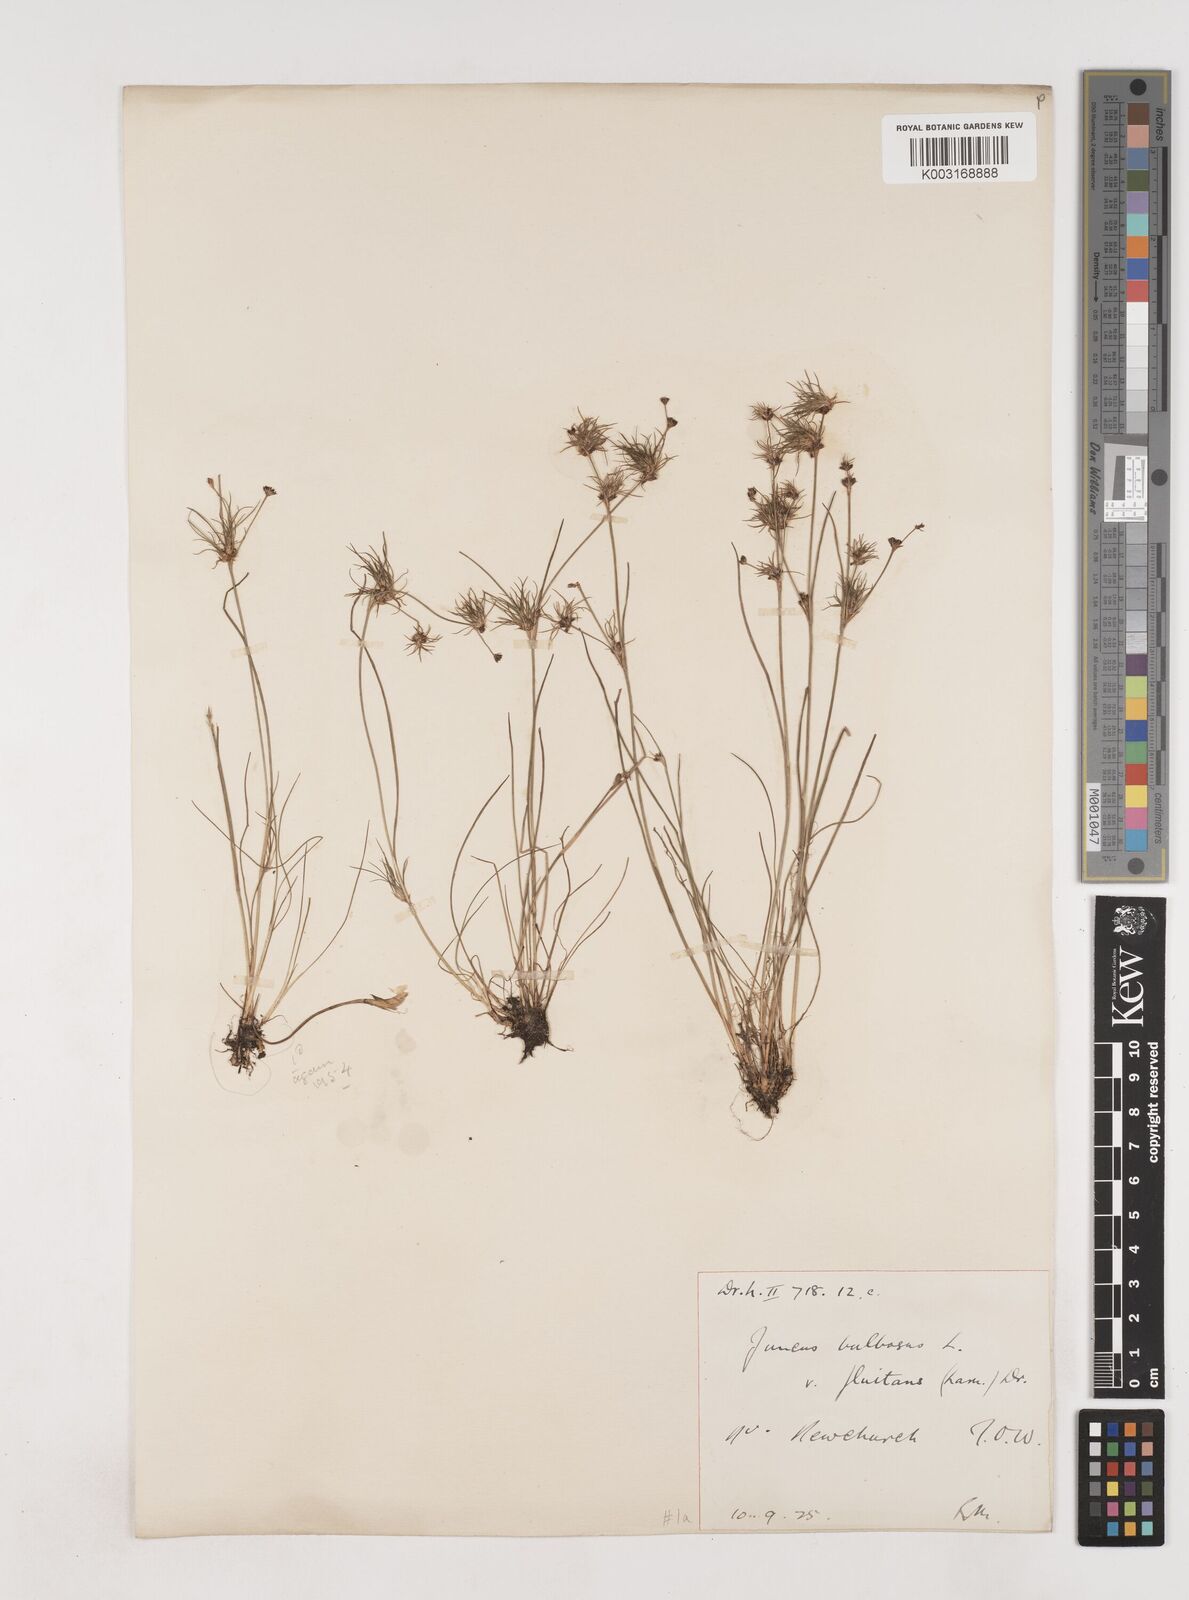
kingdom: Plantae
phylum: Tracheophyta
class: Liliopsida
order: Poales
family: Juncaceae
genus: Juncus
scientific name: Juncus bulbosus
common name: Bulbous rush
